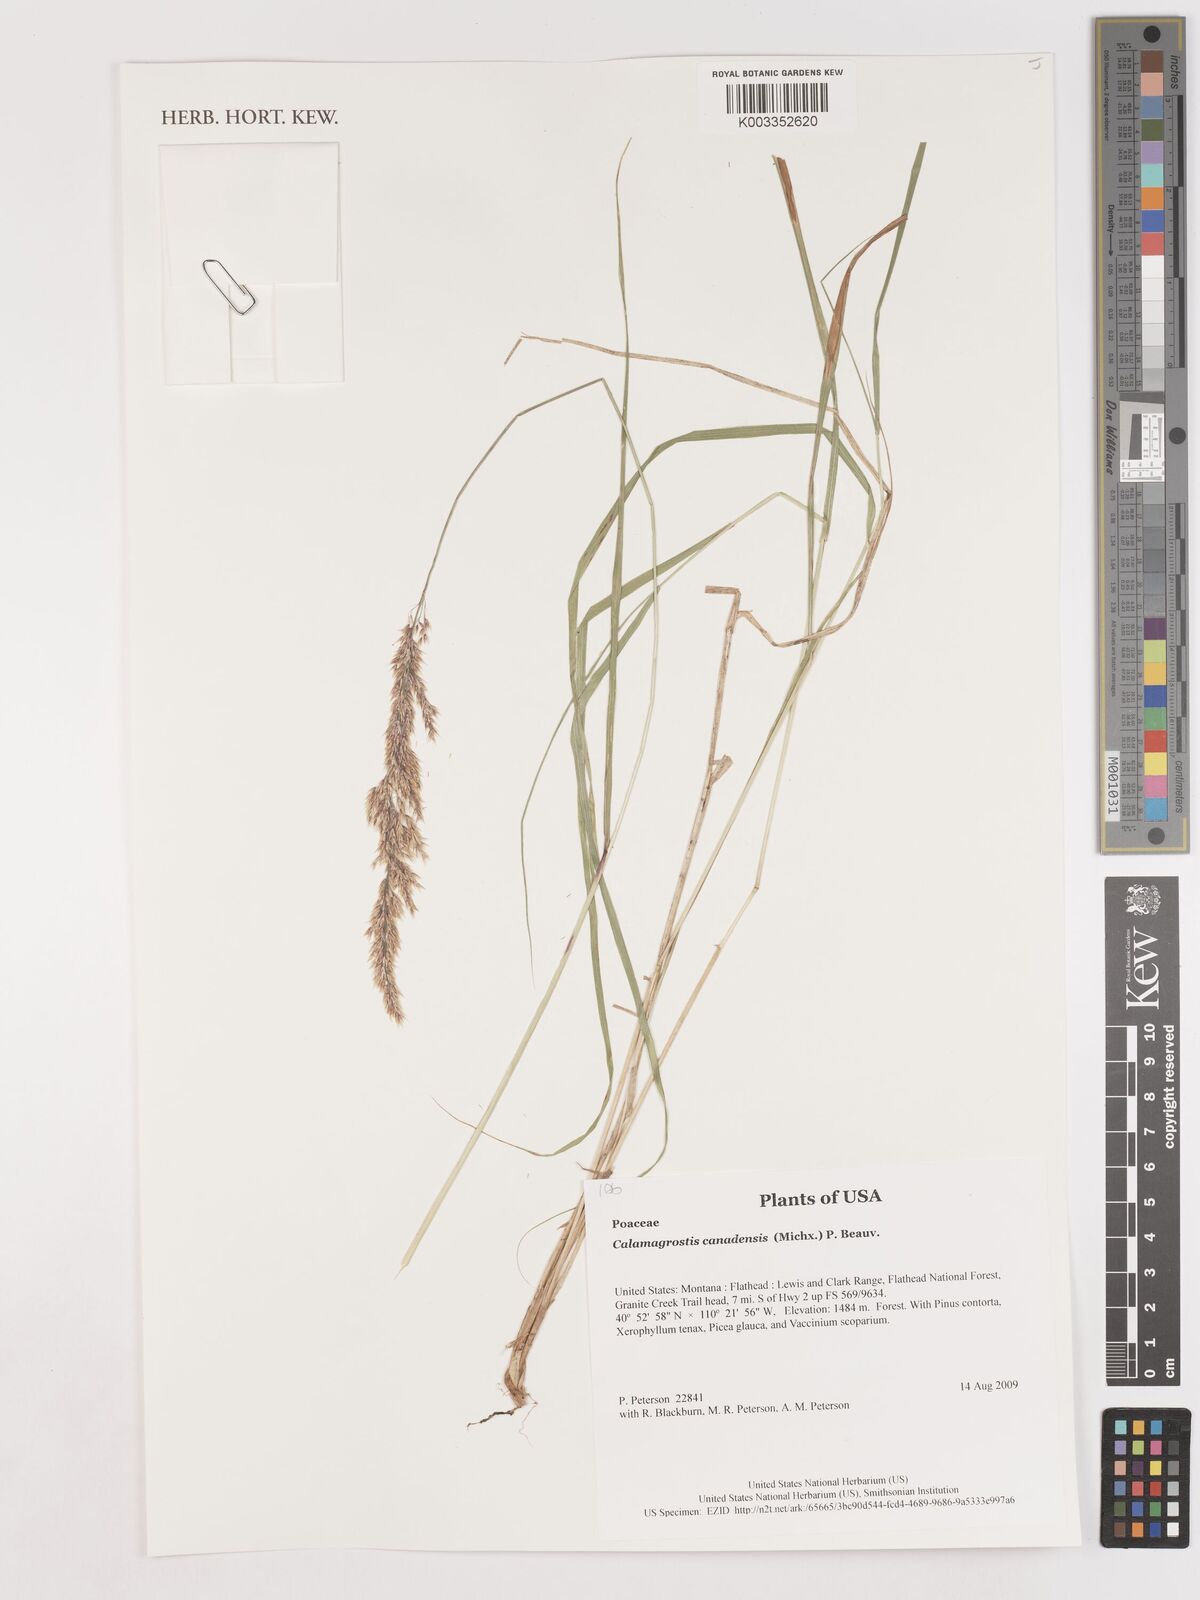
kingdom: Plantae
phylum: Tracheophyta
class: Liliopsida
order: Poales
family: Poaceae
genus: Calamagrostis
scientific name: Calamagrostis canadensis
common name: Canada bluejoint
